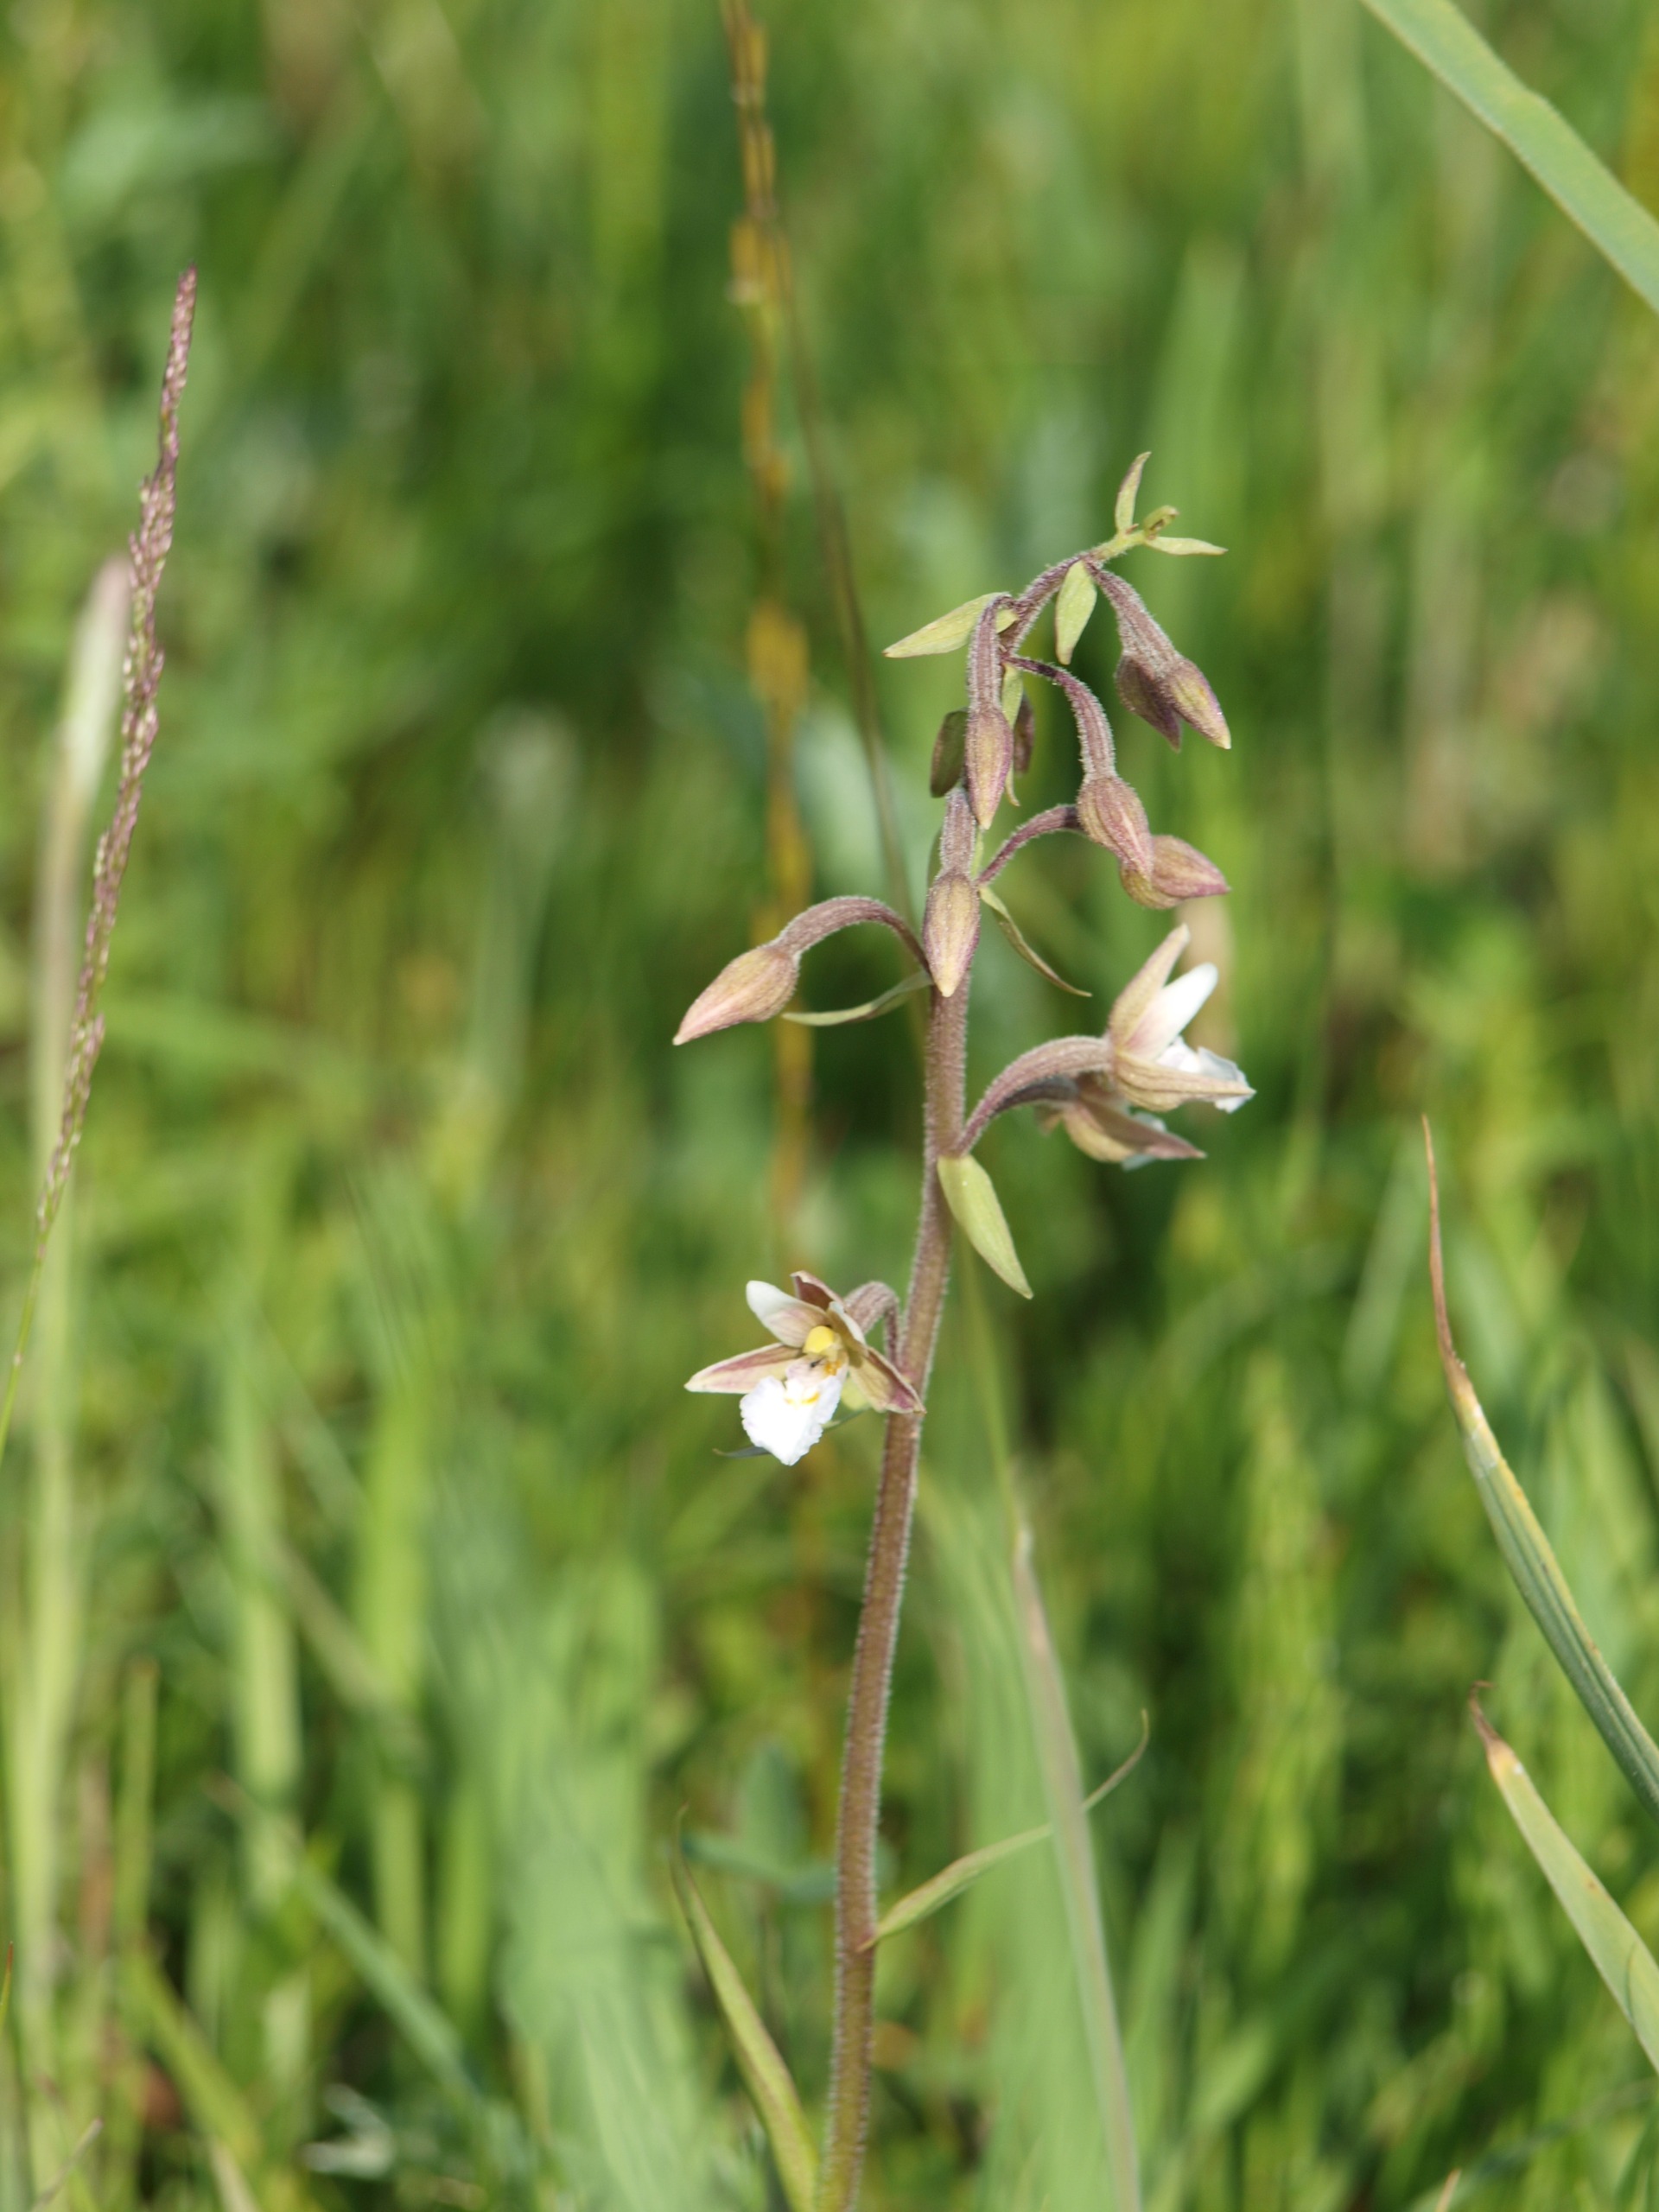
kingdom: Plantae
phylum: Tracheophyta
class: Liliopsida
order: Asparagales
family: Orchidaceae
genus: Epipactis
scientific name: Epipactis palustris
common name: Sump-hullæbe
